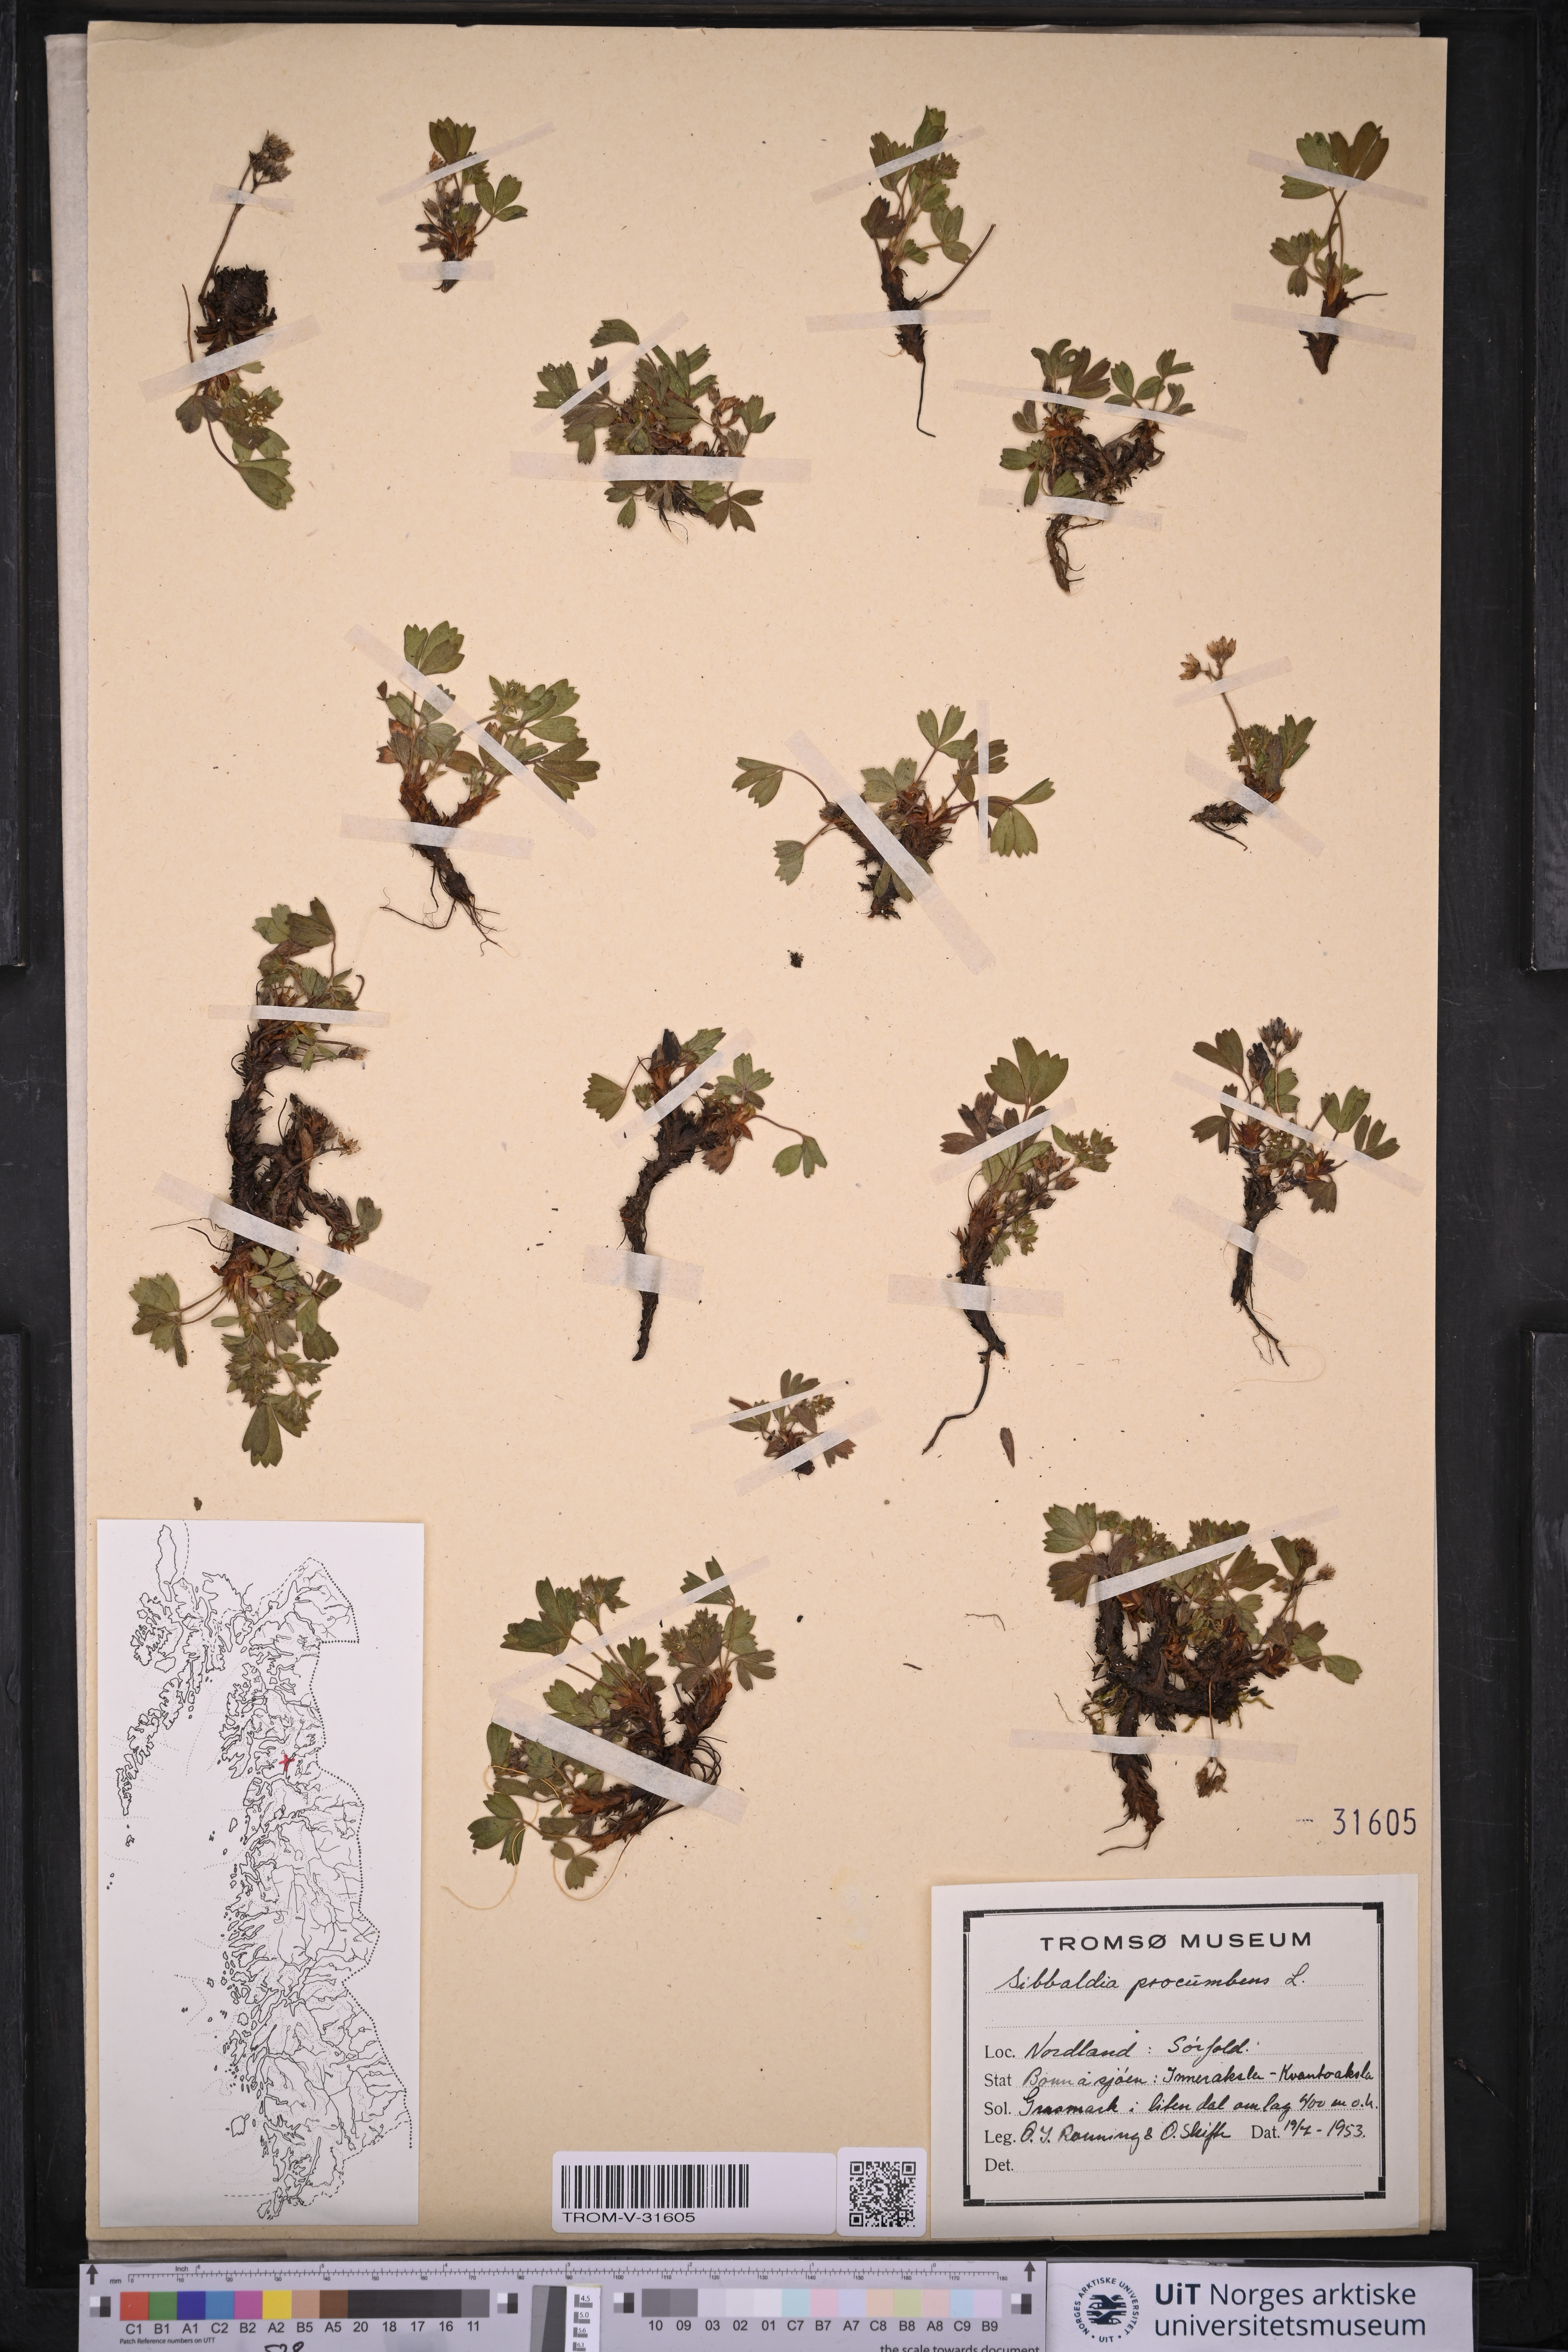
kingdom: Plantae
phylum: Tracheophyta
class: Magnoliopsida
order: Rosales
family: Rosaceae
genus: Sibbaldia
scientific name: Sibbaldia procumbens
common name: Creeping sibbaldia
